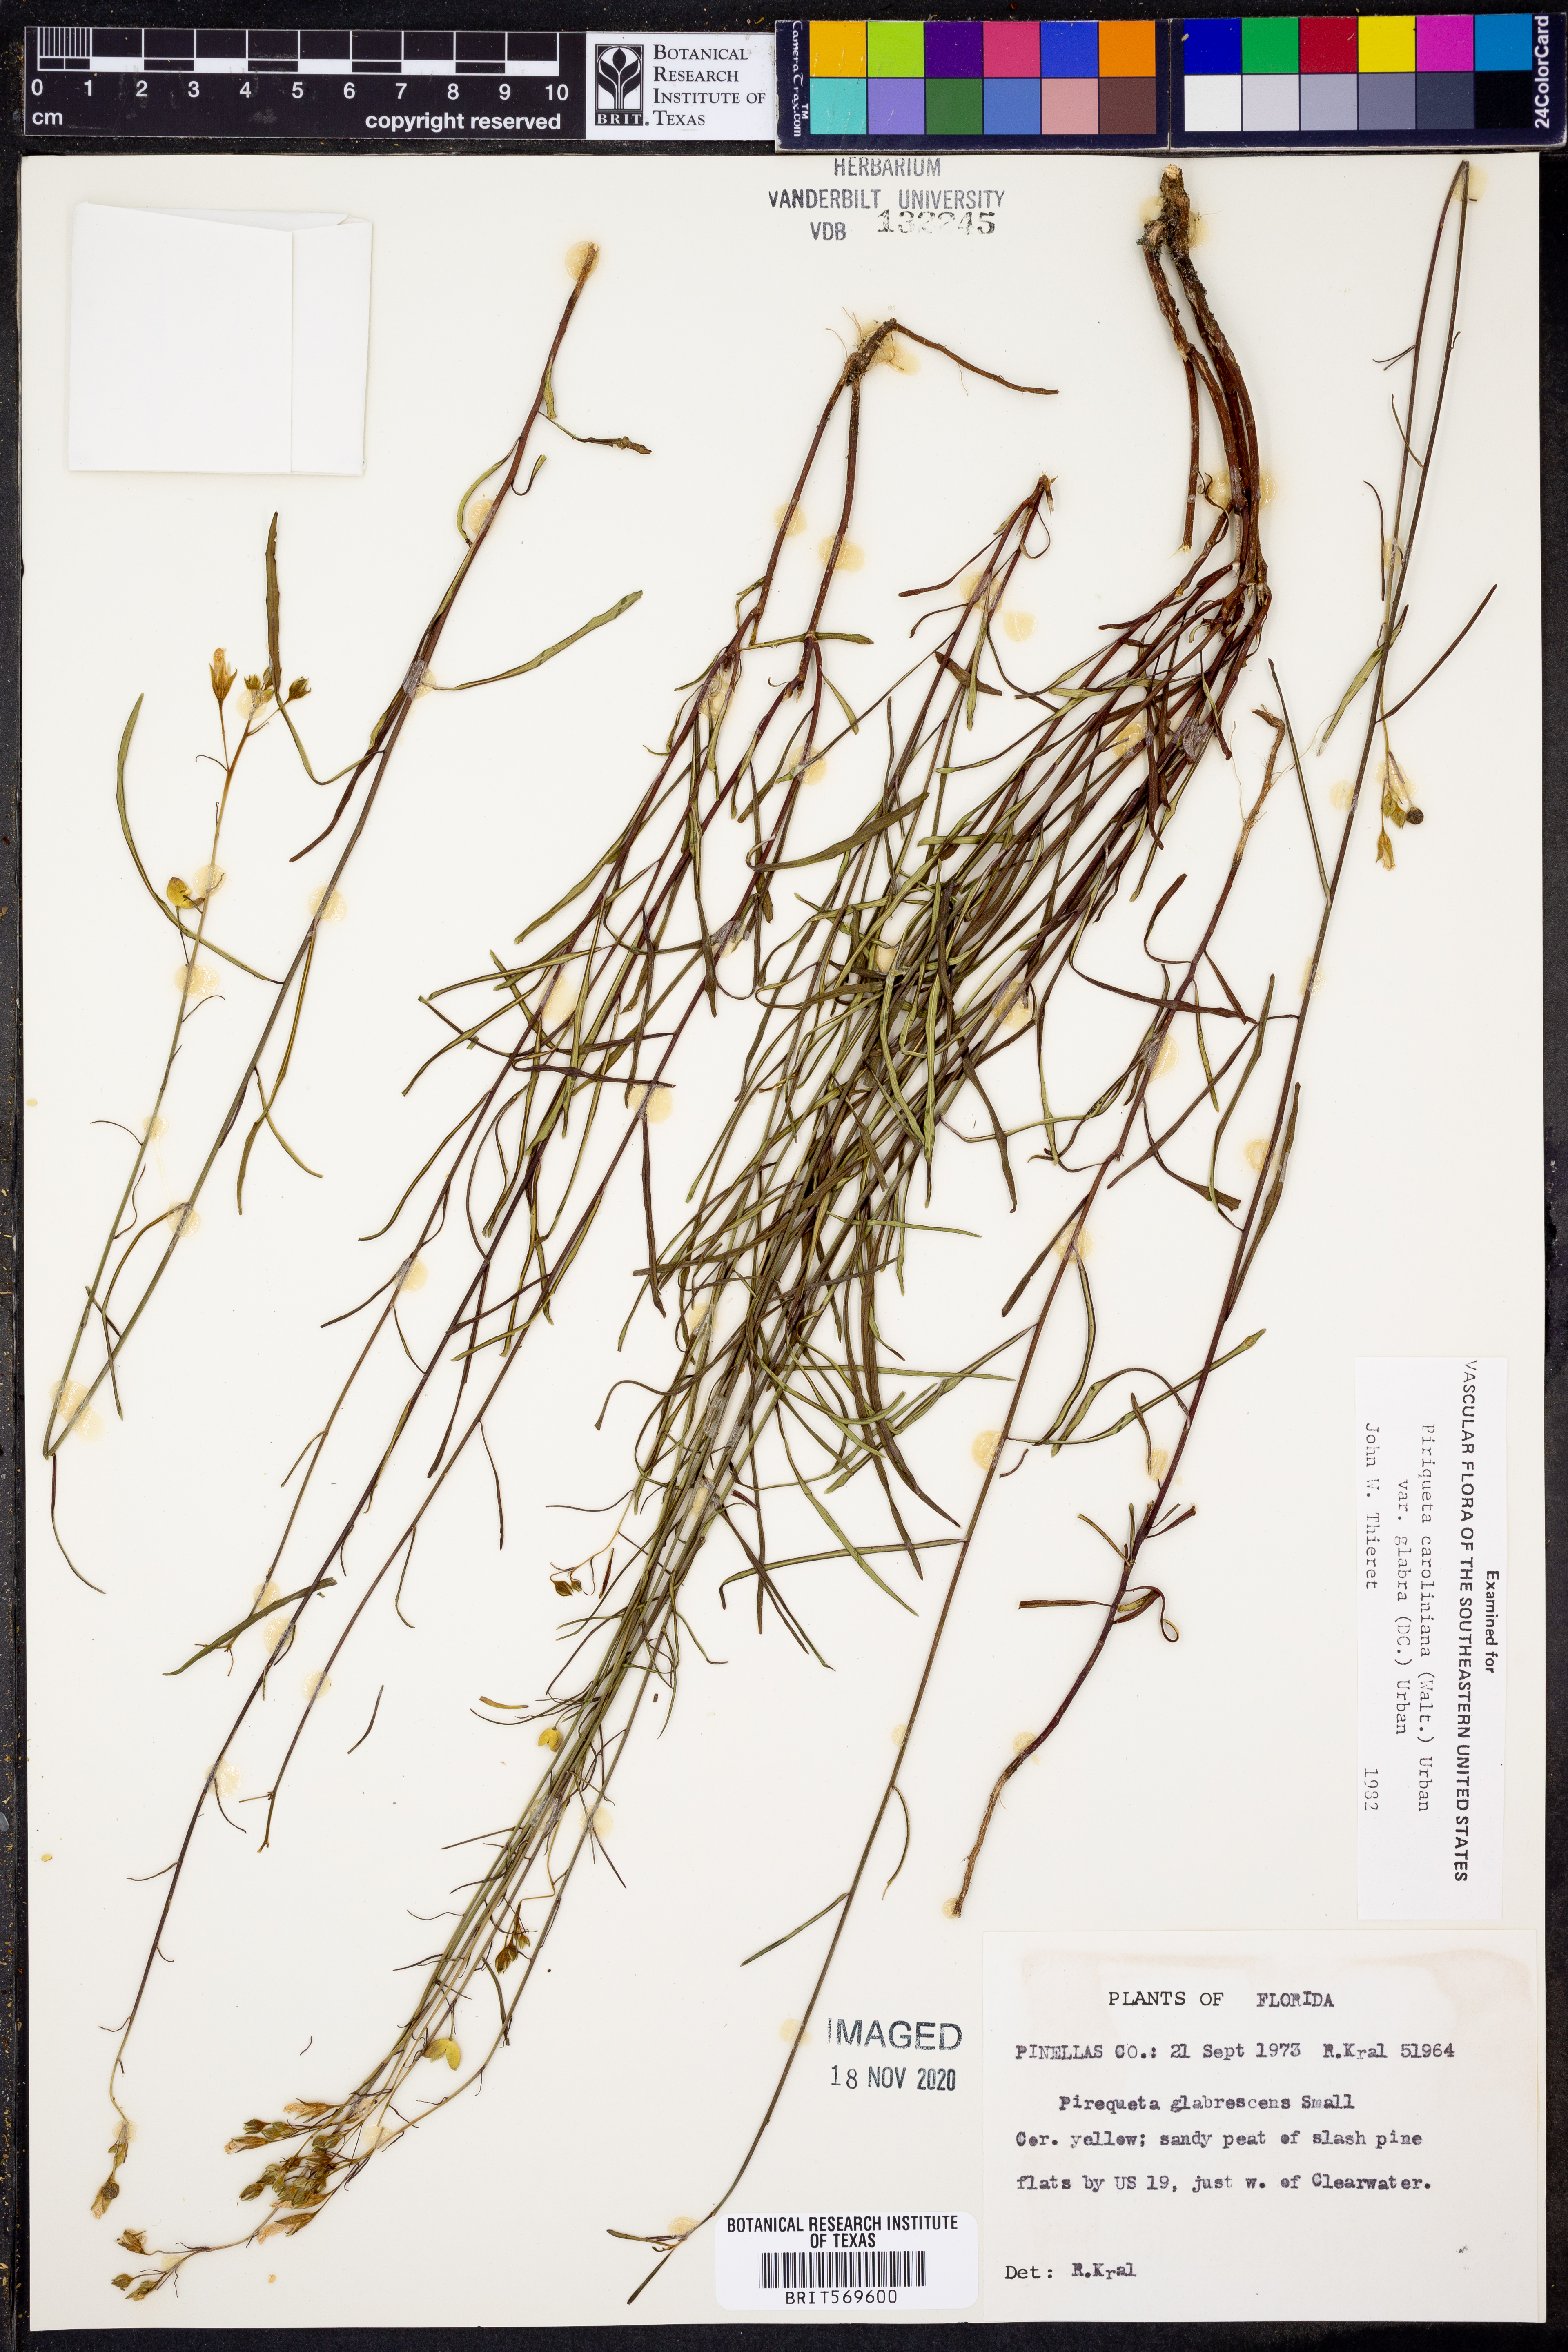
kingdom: Plantae
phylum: Tracheophyta
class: Magnoliopsida
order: Malpighiales
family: Turneraceae
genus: Piriqueta
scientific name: Piriqueta cistoides
